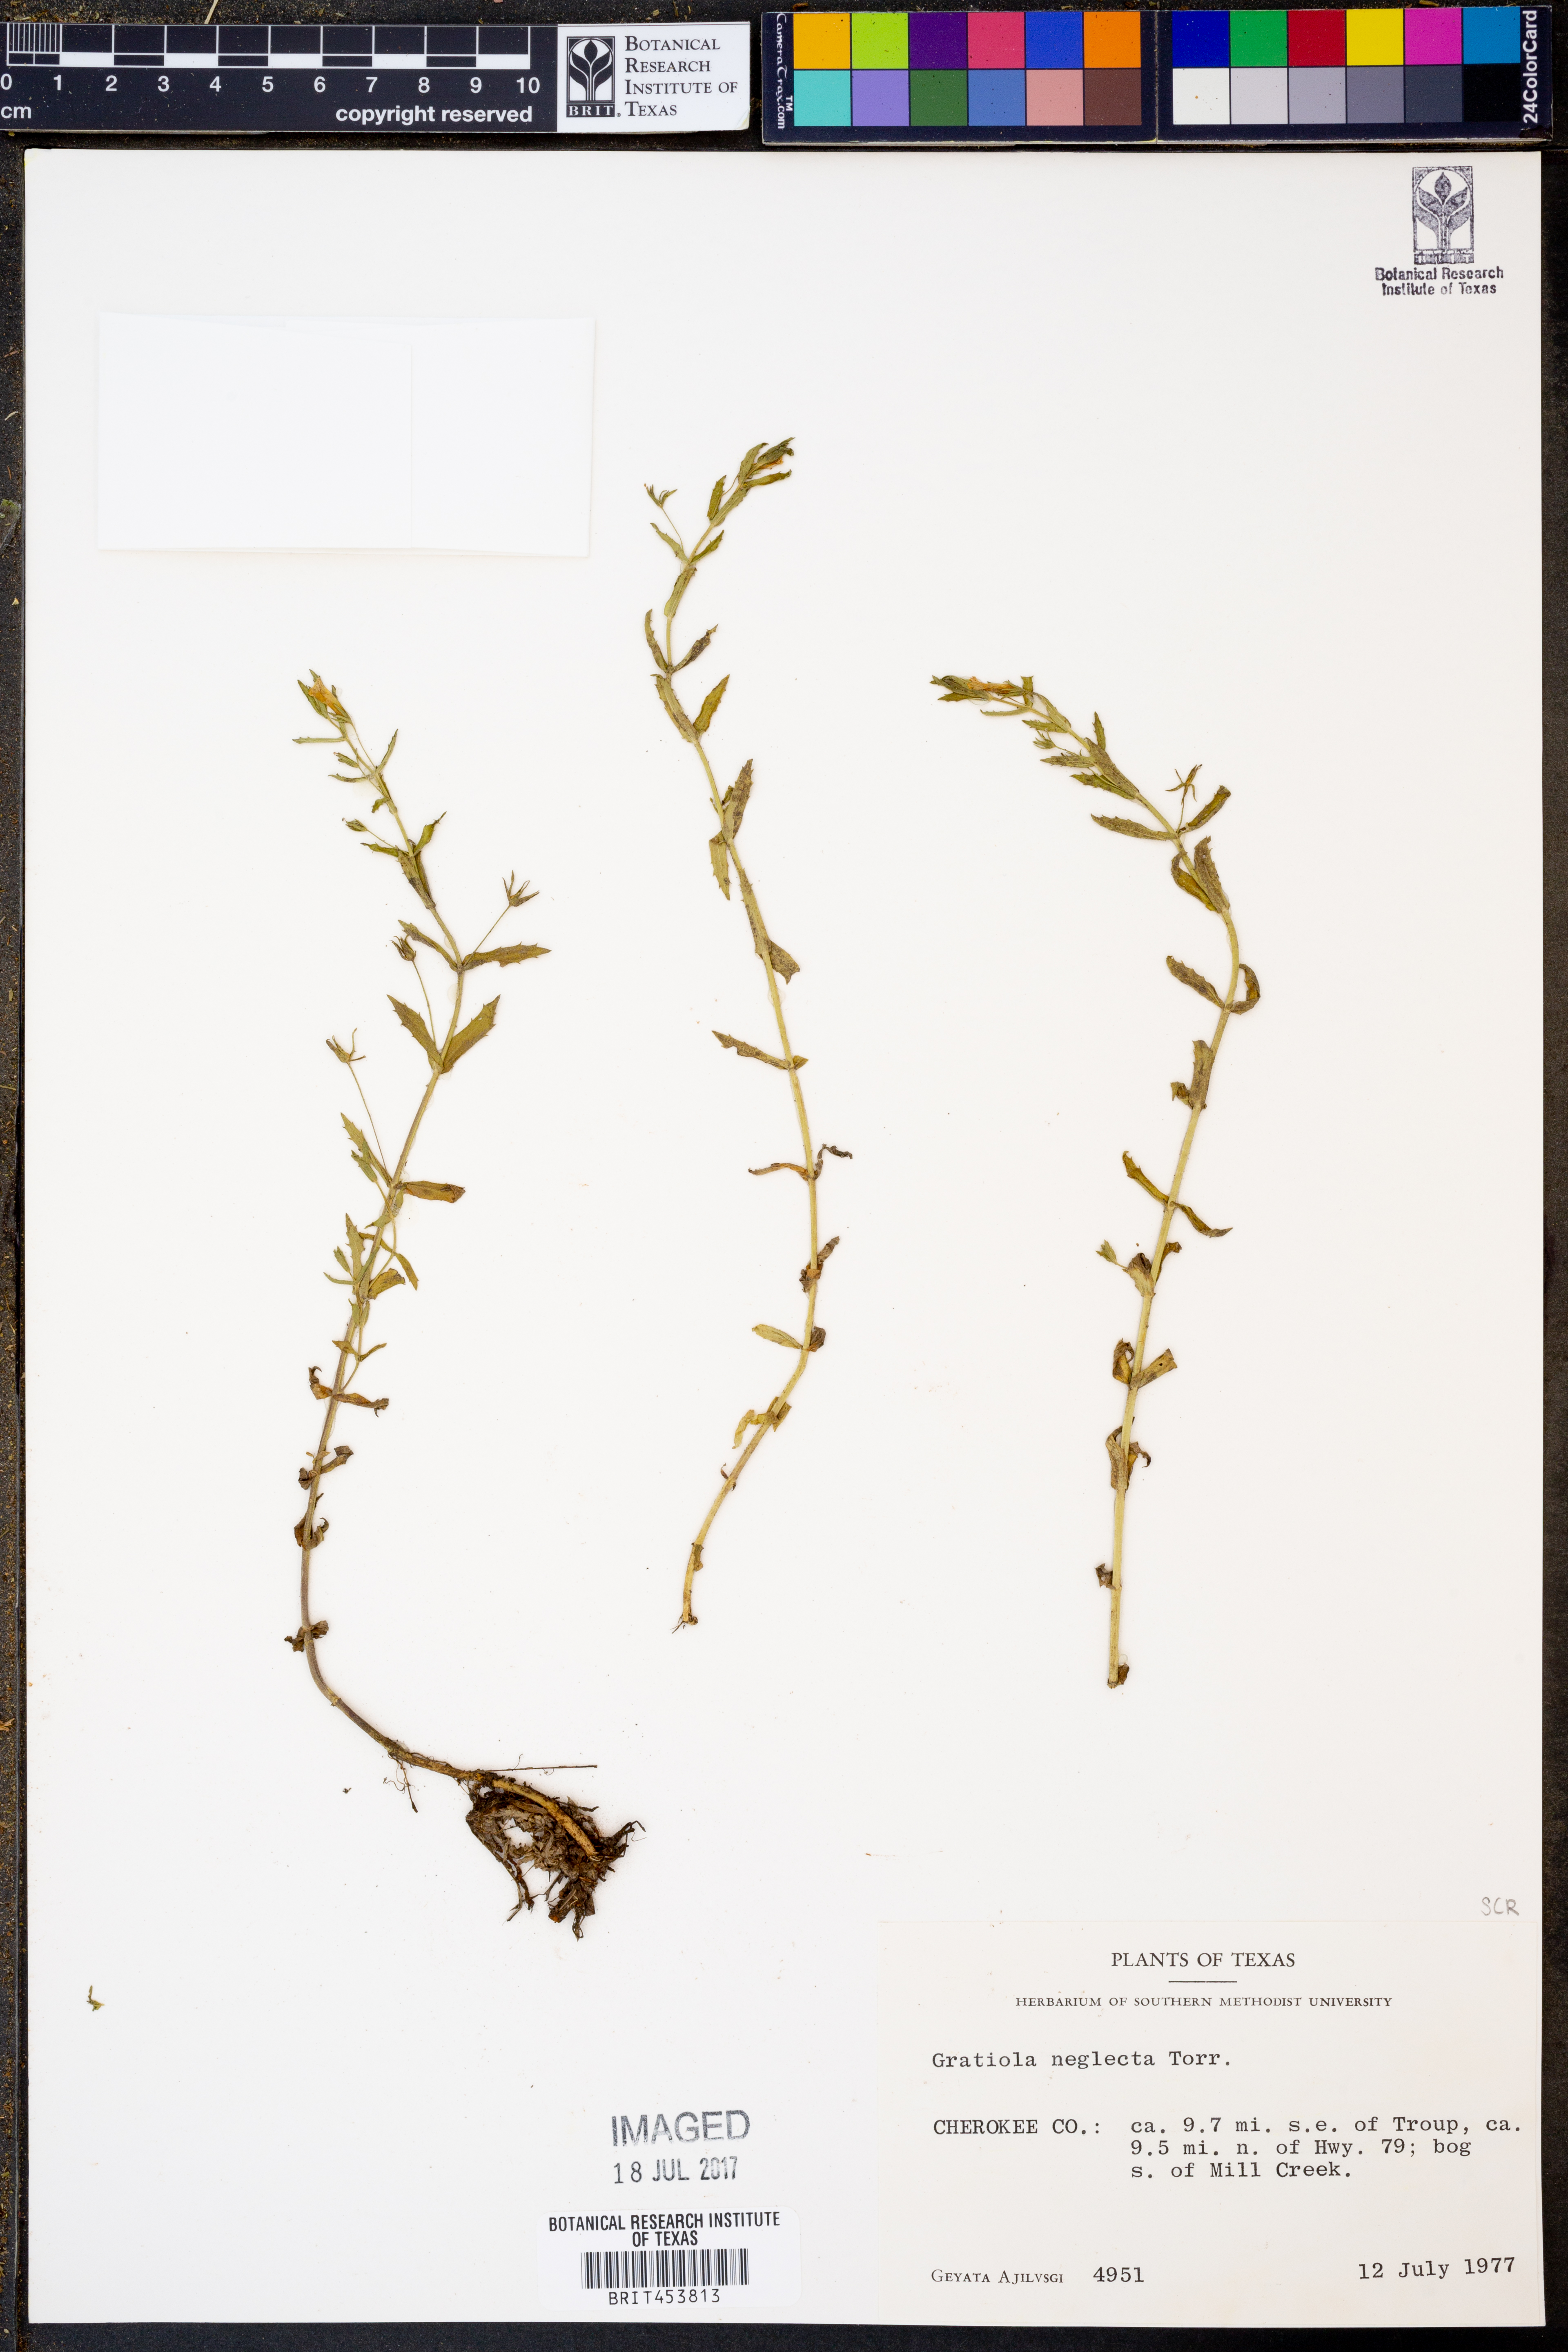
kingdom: Plantae
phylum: Tracheophyta
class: Magnoliopsida
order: Lamiales
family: Plantaginaceae
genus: Gratiola
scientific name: Gratiola neglecta
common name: American hedge-hyssop
